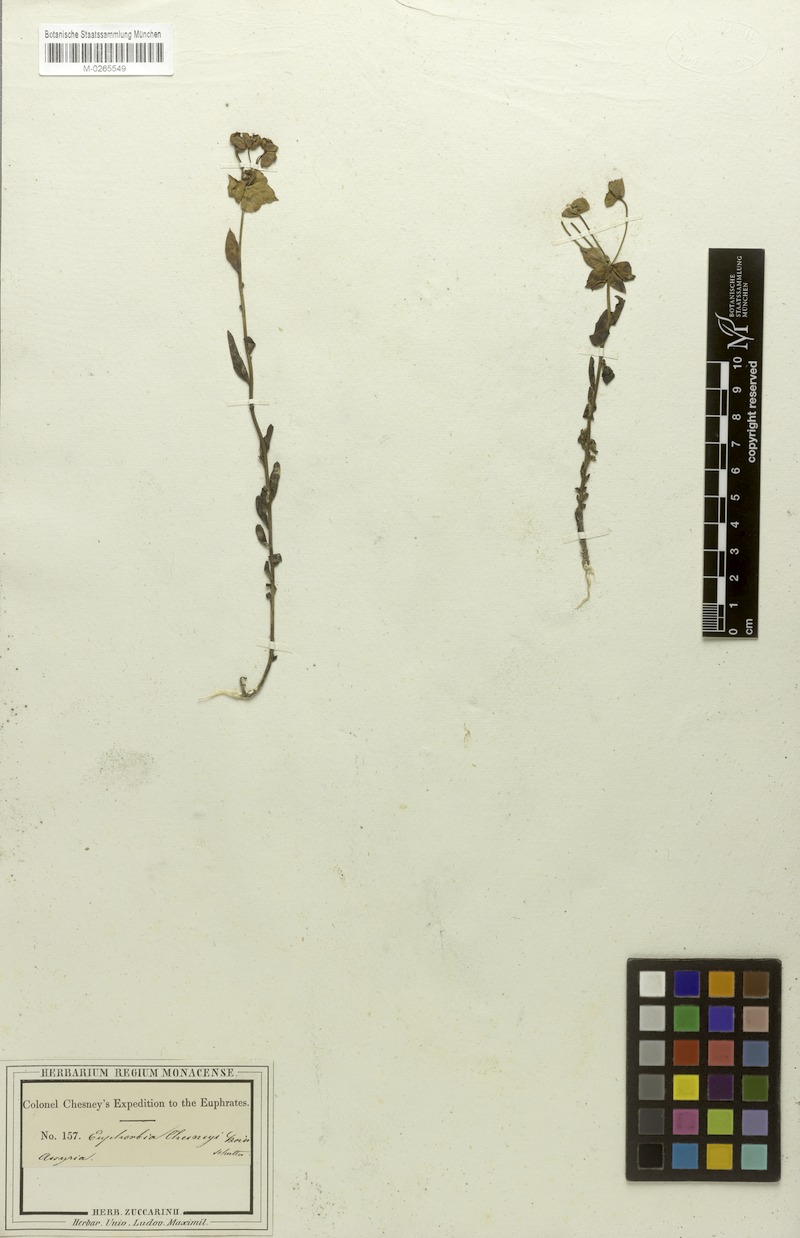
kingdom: Plantae
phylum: Tracheophyta
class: Magnoliopsida
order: Malpighiales
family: Euphorbiaceae
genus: Euphorbia
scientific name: Euphorbia cuspidata
